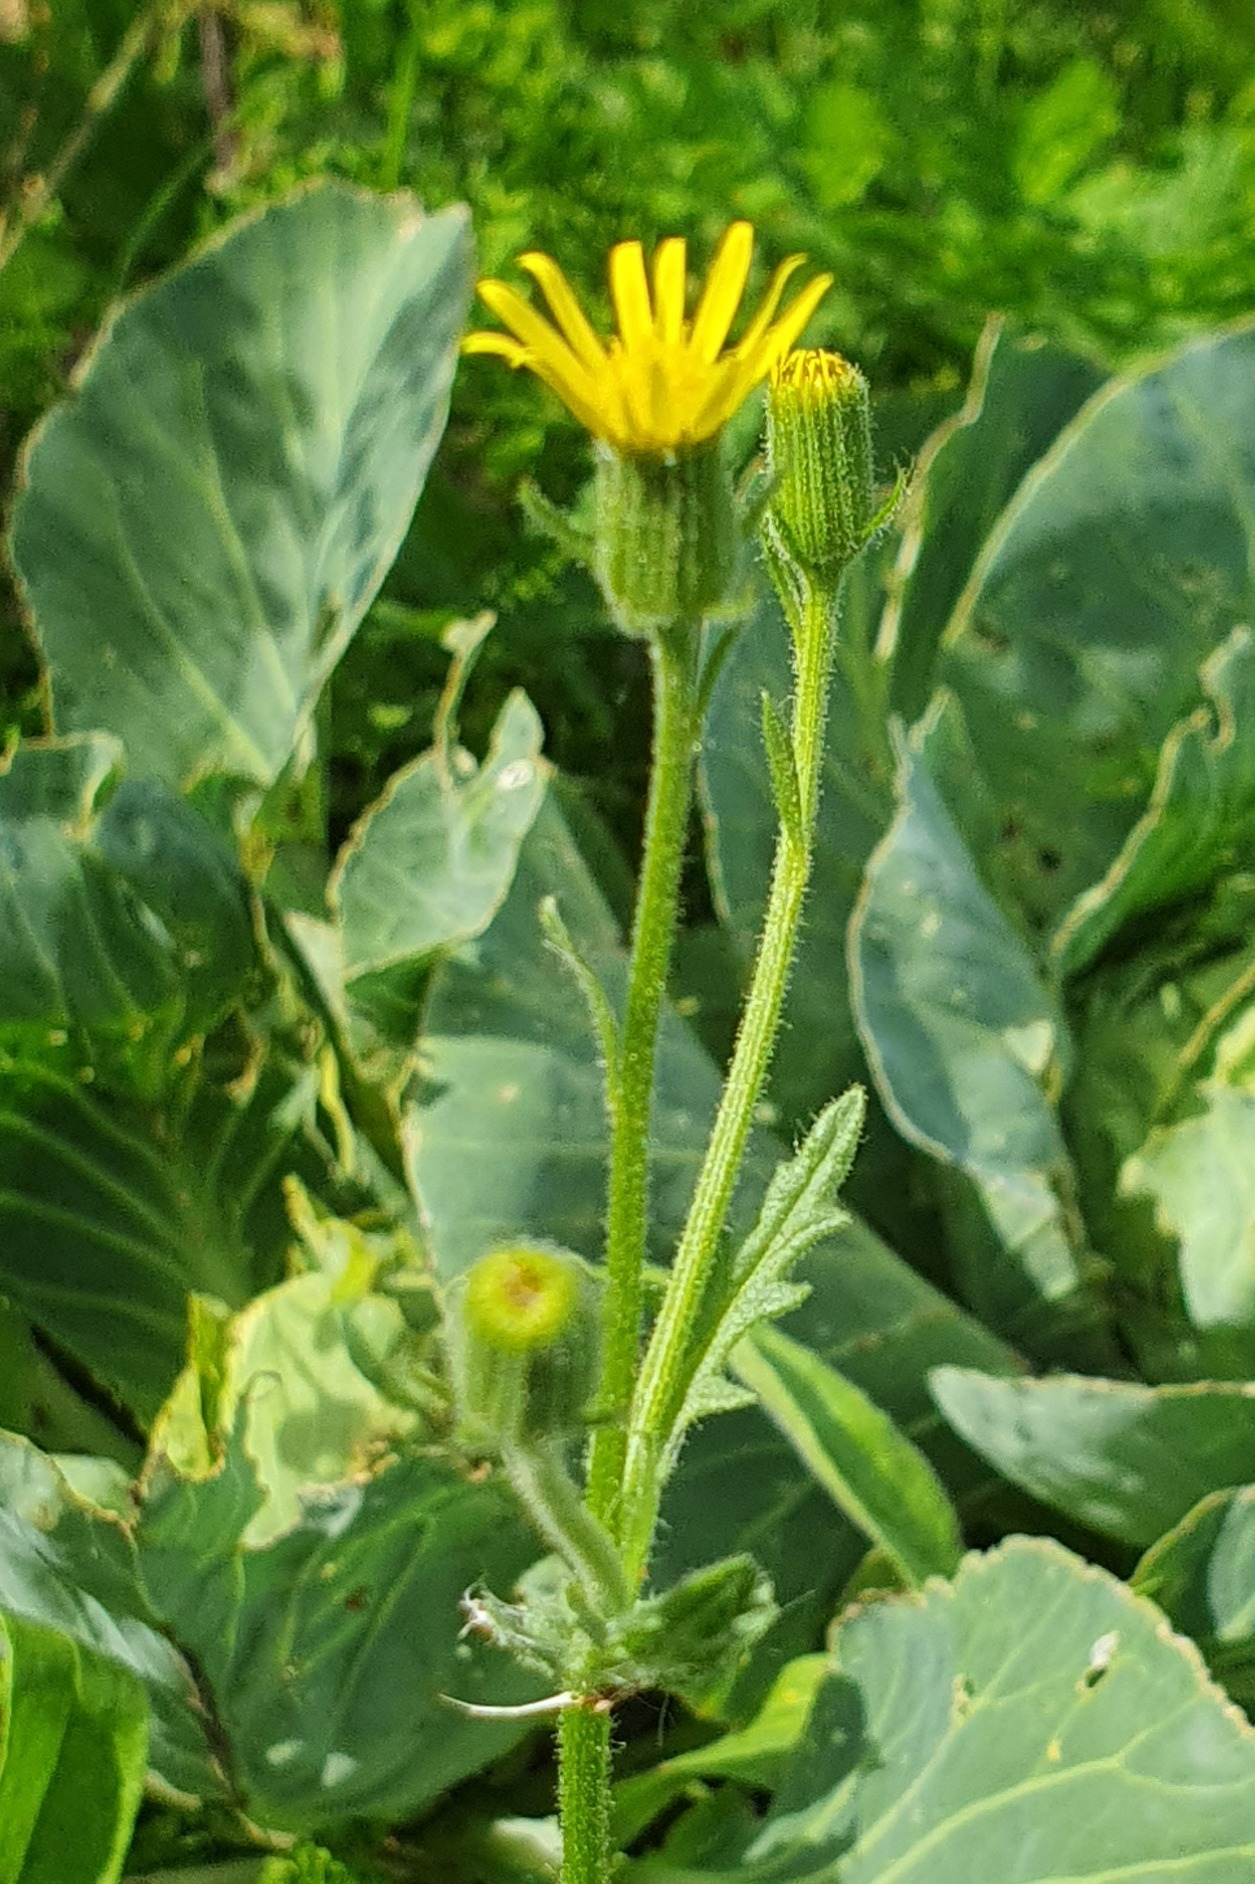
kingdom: Plantae
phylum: Tracheophyta
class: Magnoliopsida
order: Asterales
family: Asteraceae
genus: Senecio
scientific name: Senecio viscosus
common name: Klæbrig brandbæger
